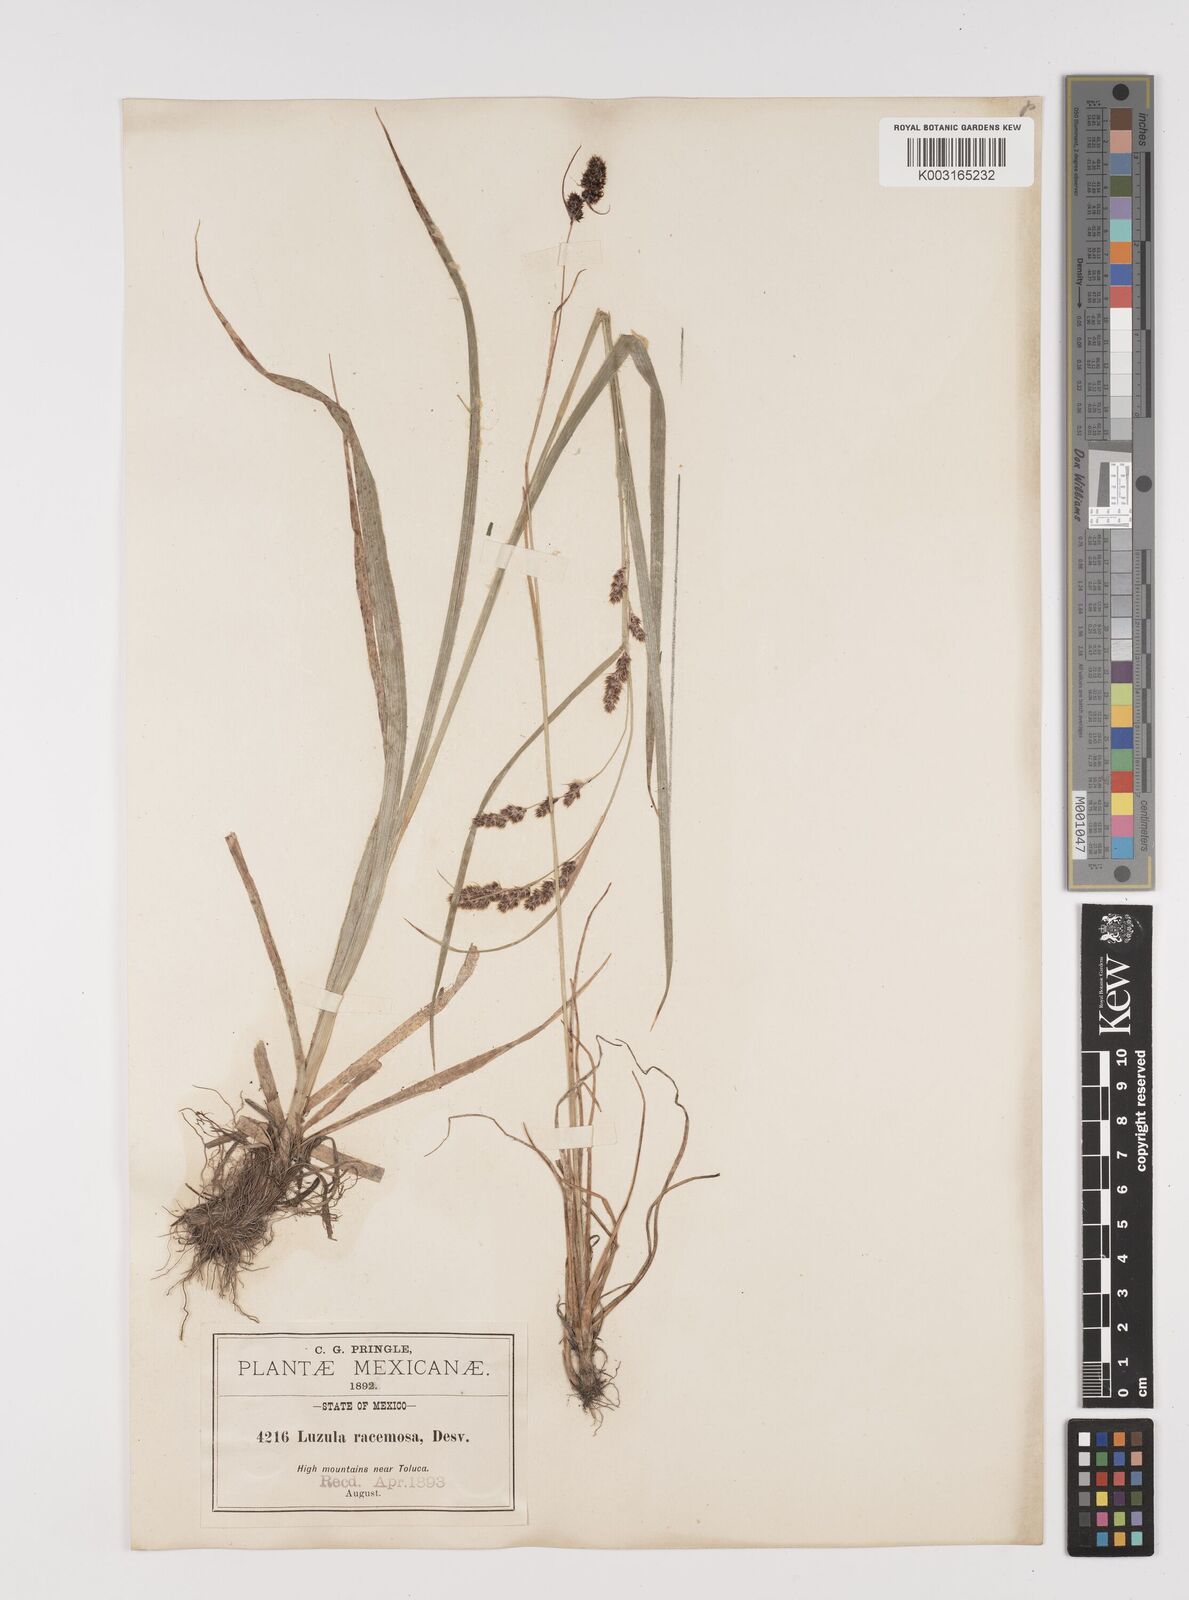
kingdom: Plantae
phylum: Tracheophyta
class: Liliopsida
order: Poales
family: Juncaceae
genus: Luzula
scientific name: Luzula racemosa
